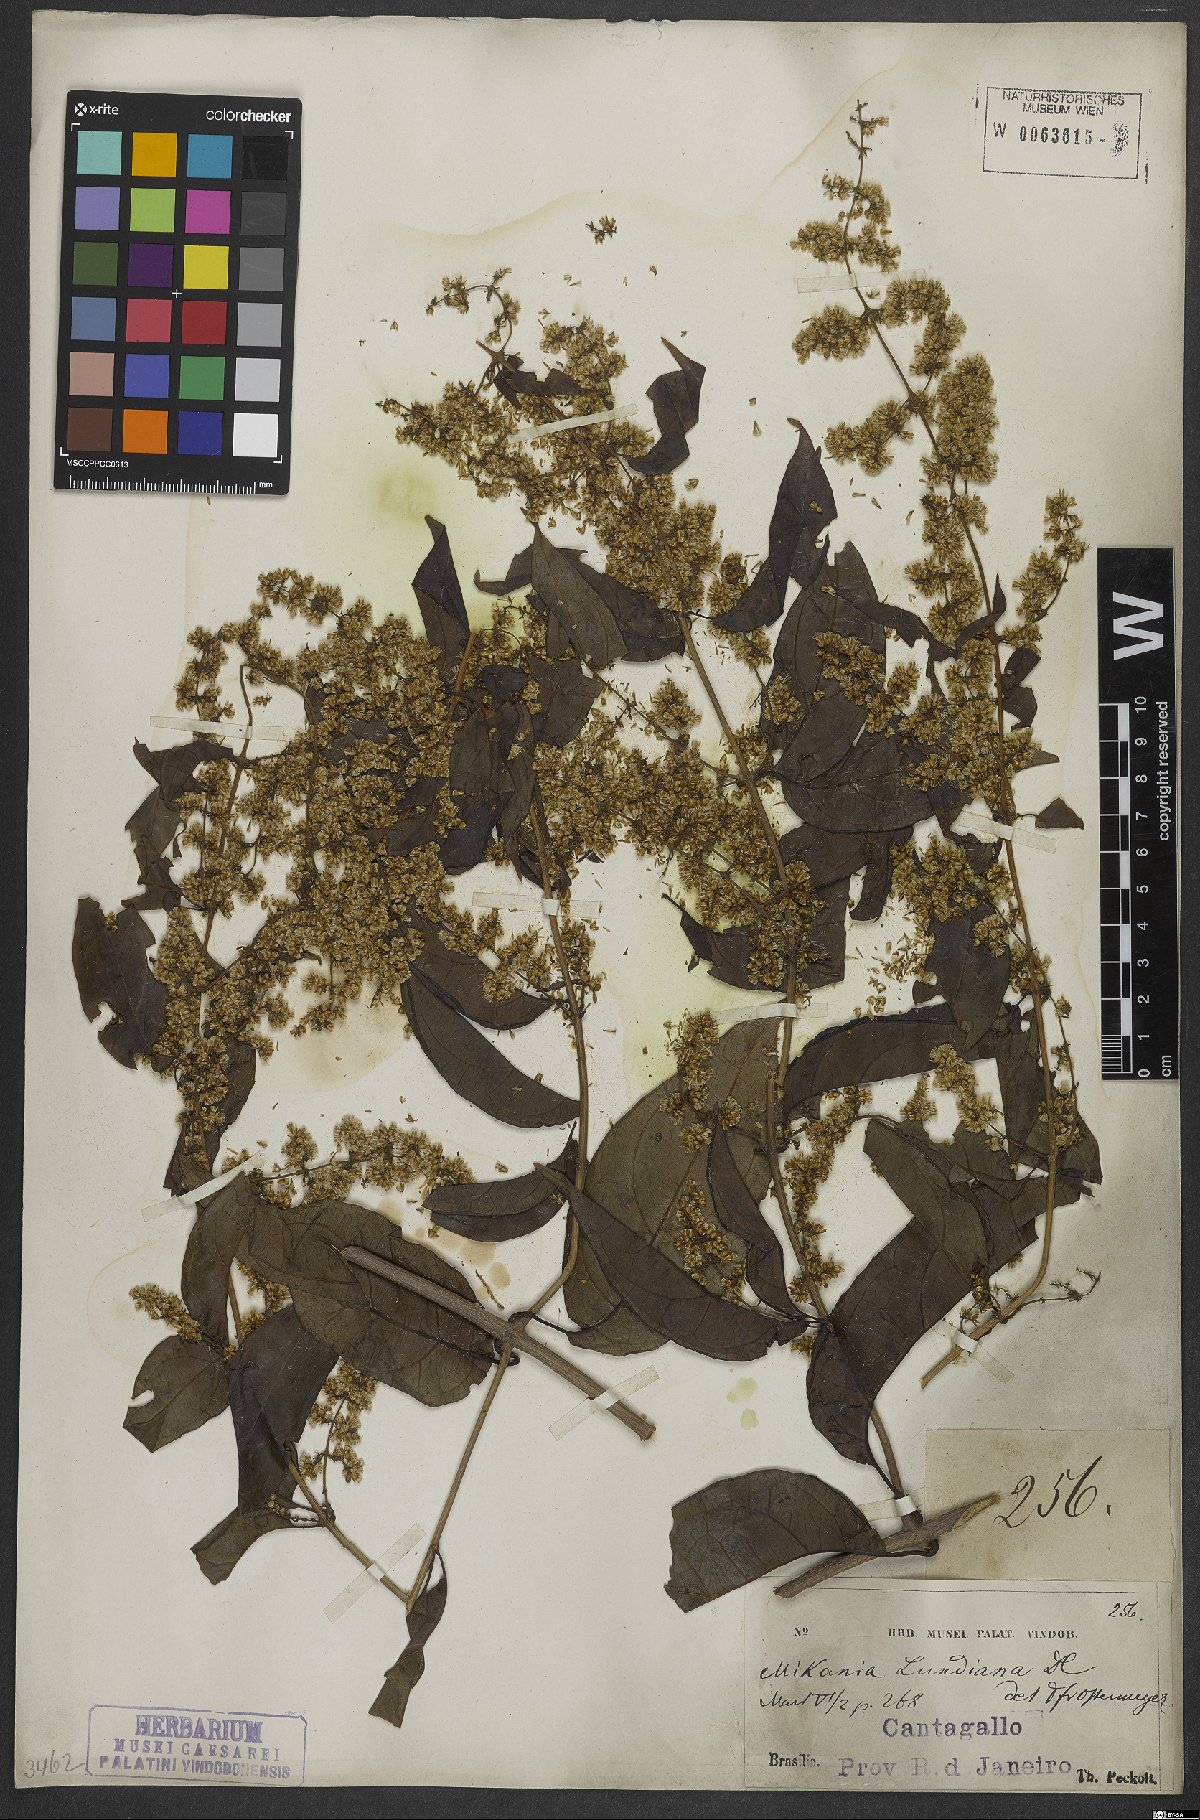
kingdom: Plantae
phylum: Tracheophyta
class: Magnoliopsida
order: Asterales
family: Asteraceae
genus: Mikania
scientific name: Mikania lundiana
